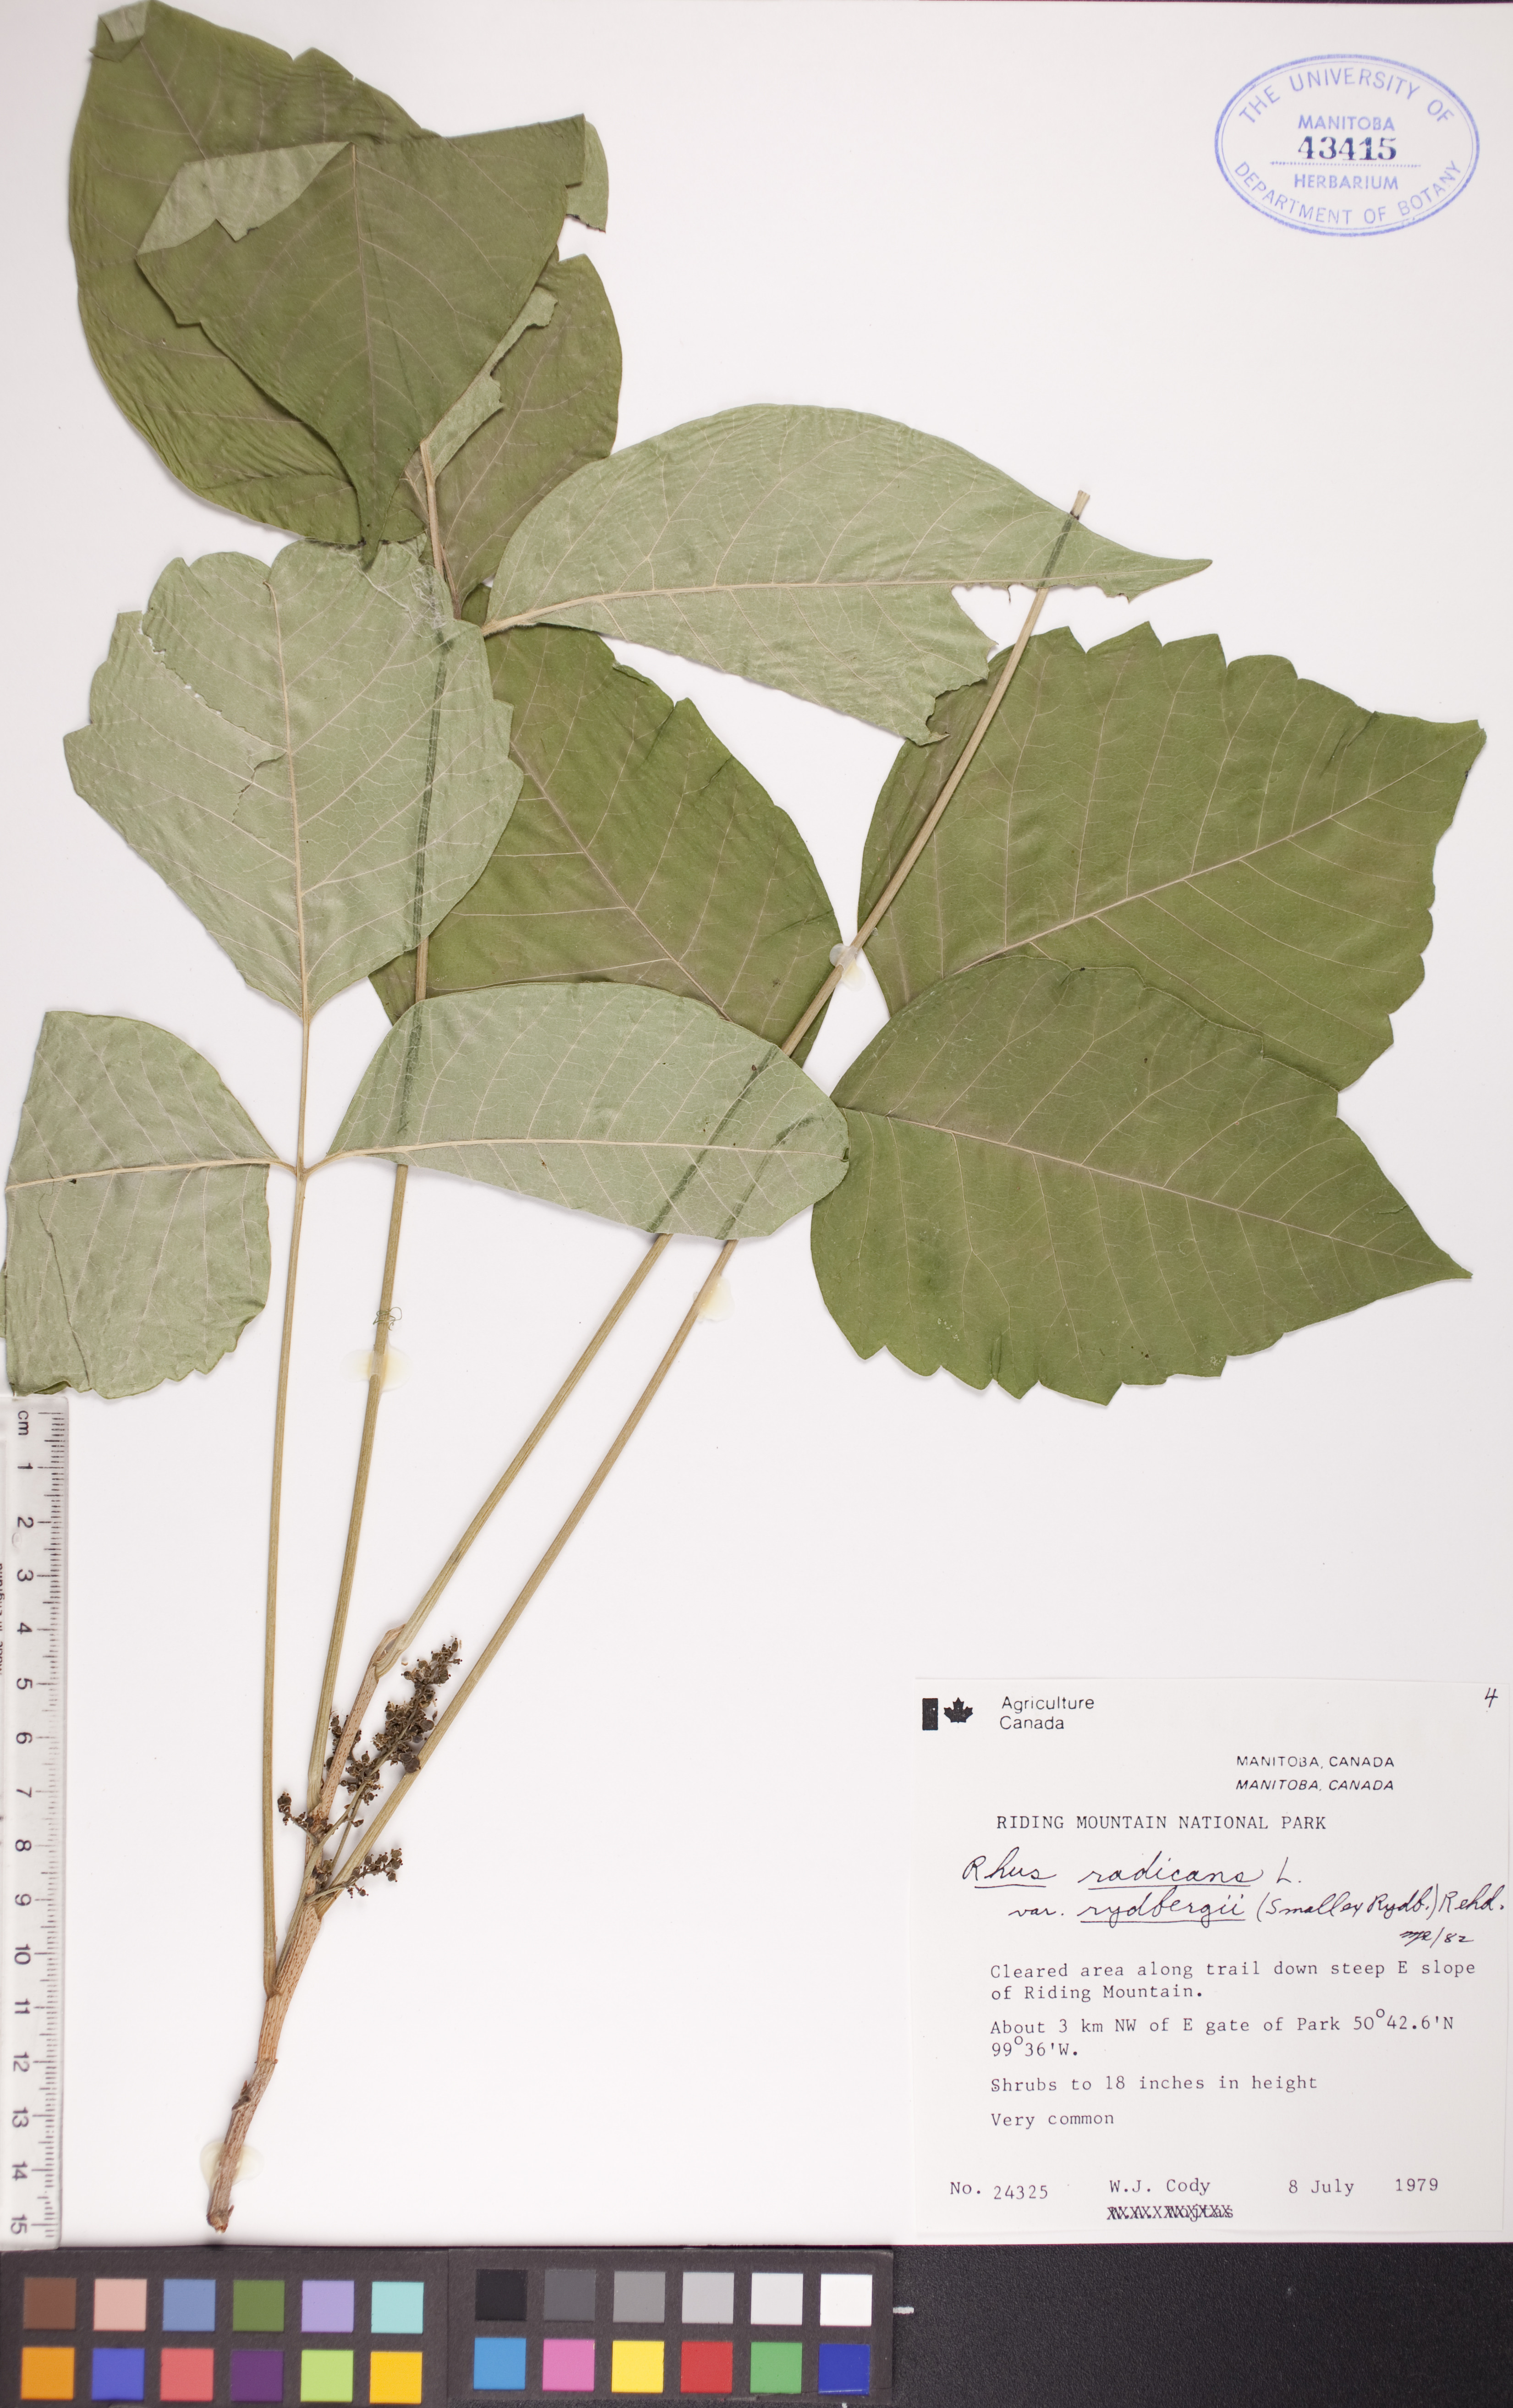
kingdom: Plantae
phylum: Tracheophyta
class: Magnoliopsida
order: Sapindales
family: Anacardiaceae
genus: Toxicodendron
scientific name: Toxicodendron rydbergii
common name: Rydberg's poison-ivy
